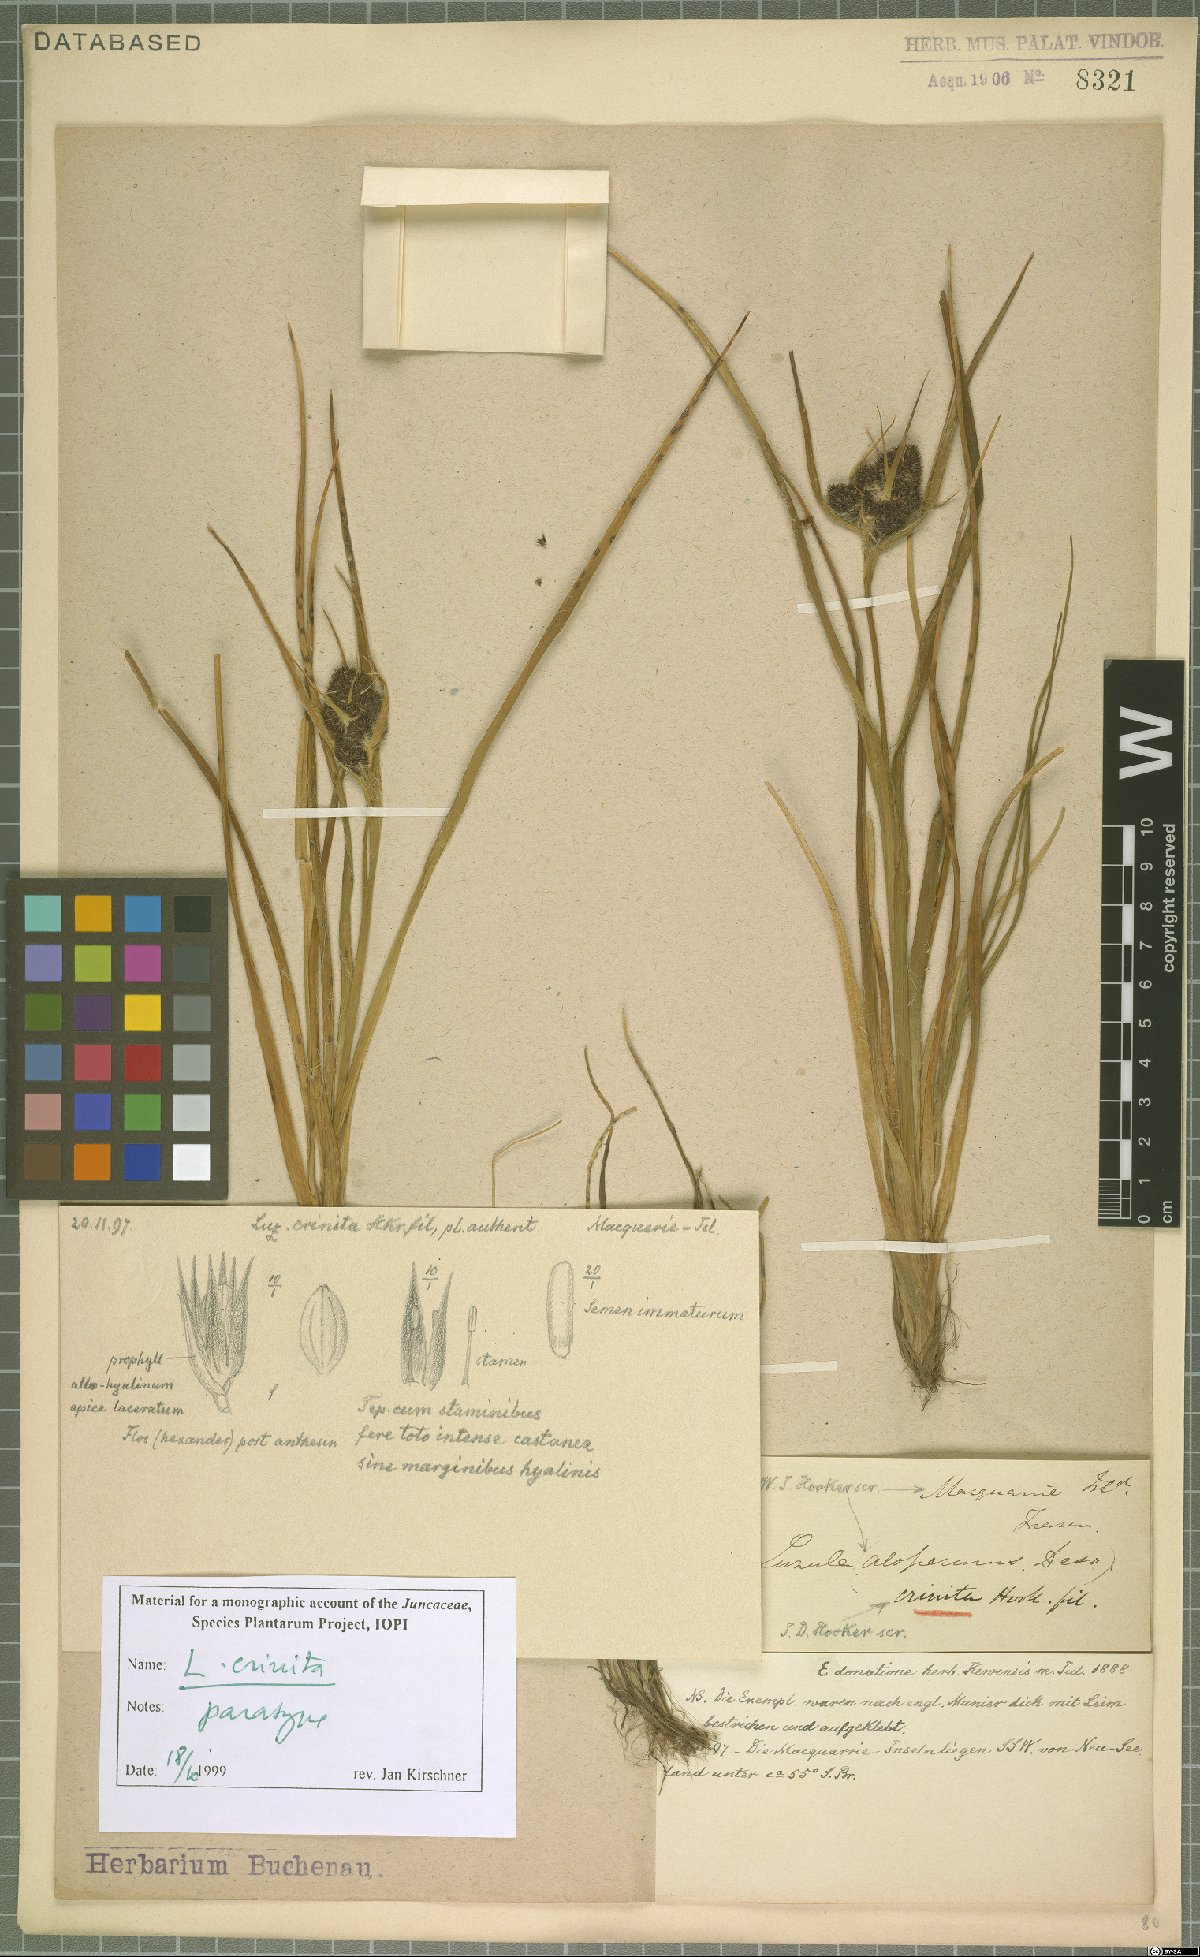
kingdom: Plantae
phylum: Tracheophyta
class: Liliopsida
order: Poales
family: Juncaceae
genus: Luzula
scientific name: Luzula crinita
